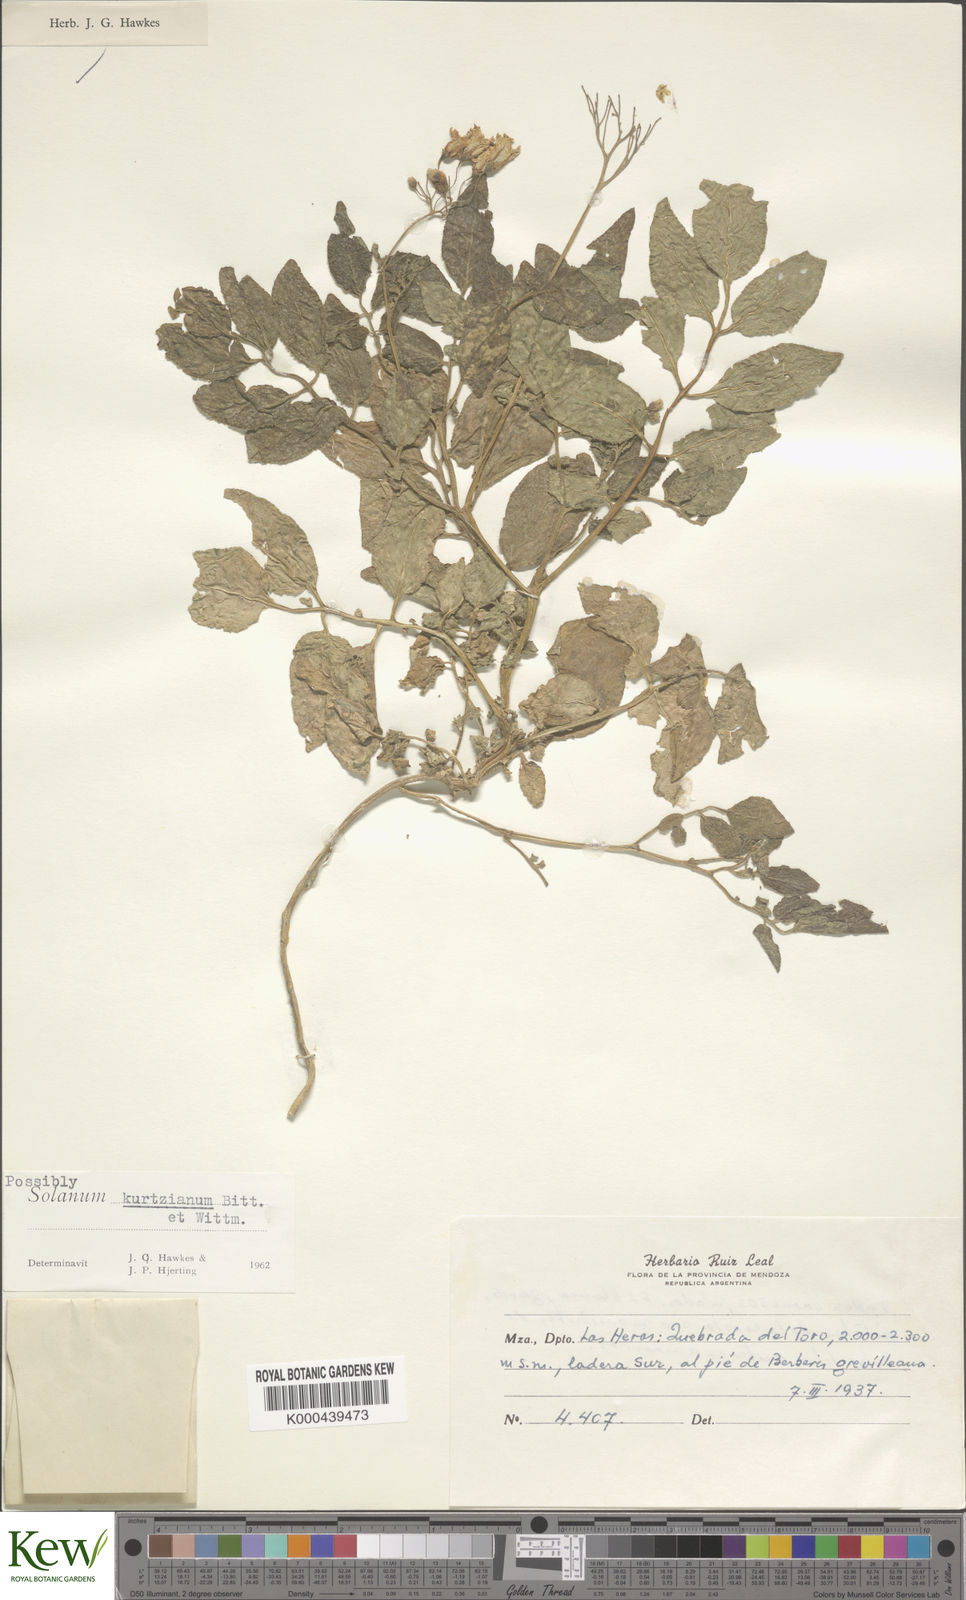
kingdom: Plantae
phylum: Tracheophyta
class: Magnoliopsida
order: Solanales
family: Solanaceae
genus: Solanum
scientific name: Solanum kurtzianum
